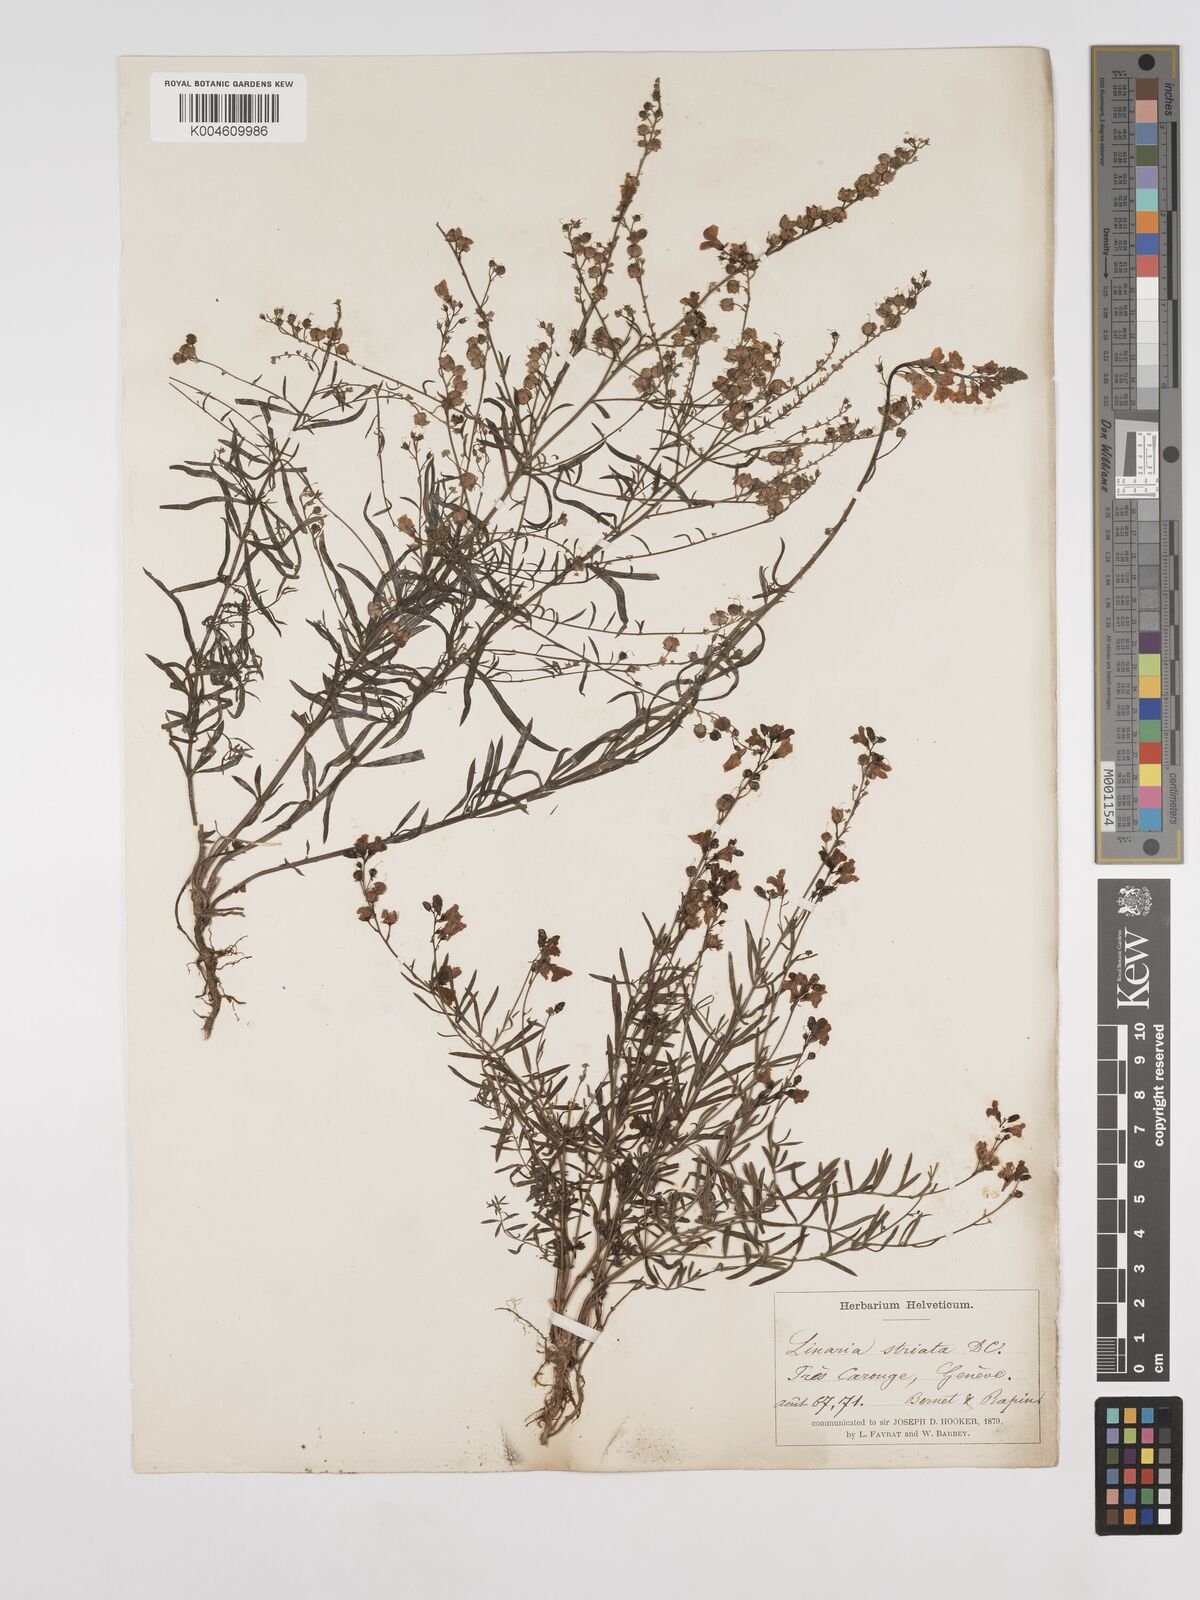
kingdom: Plantae
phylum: Tracheophyta
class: Magnoliopsida
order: Lamiales
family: Plantaginaceae
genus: Linaria
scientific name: Linaria
